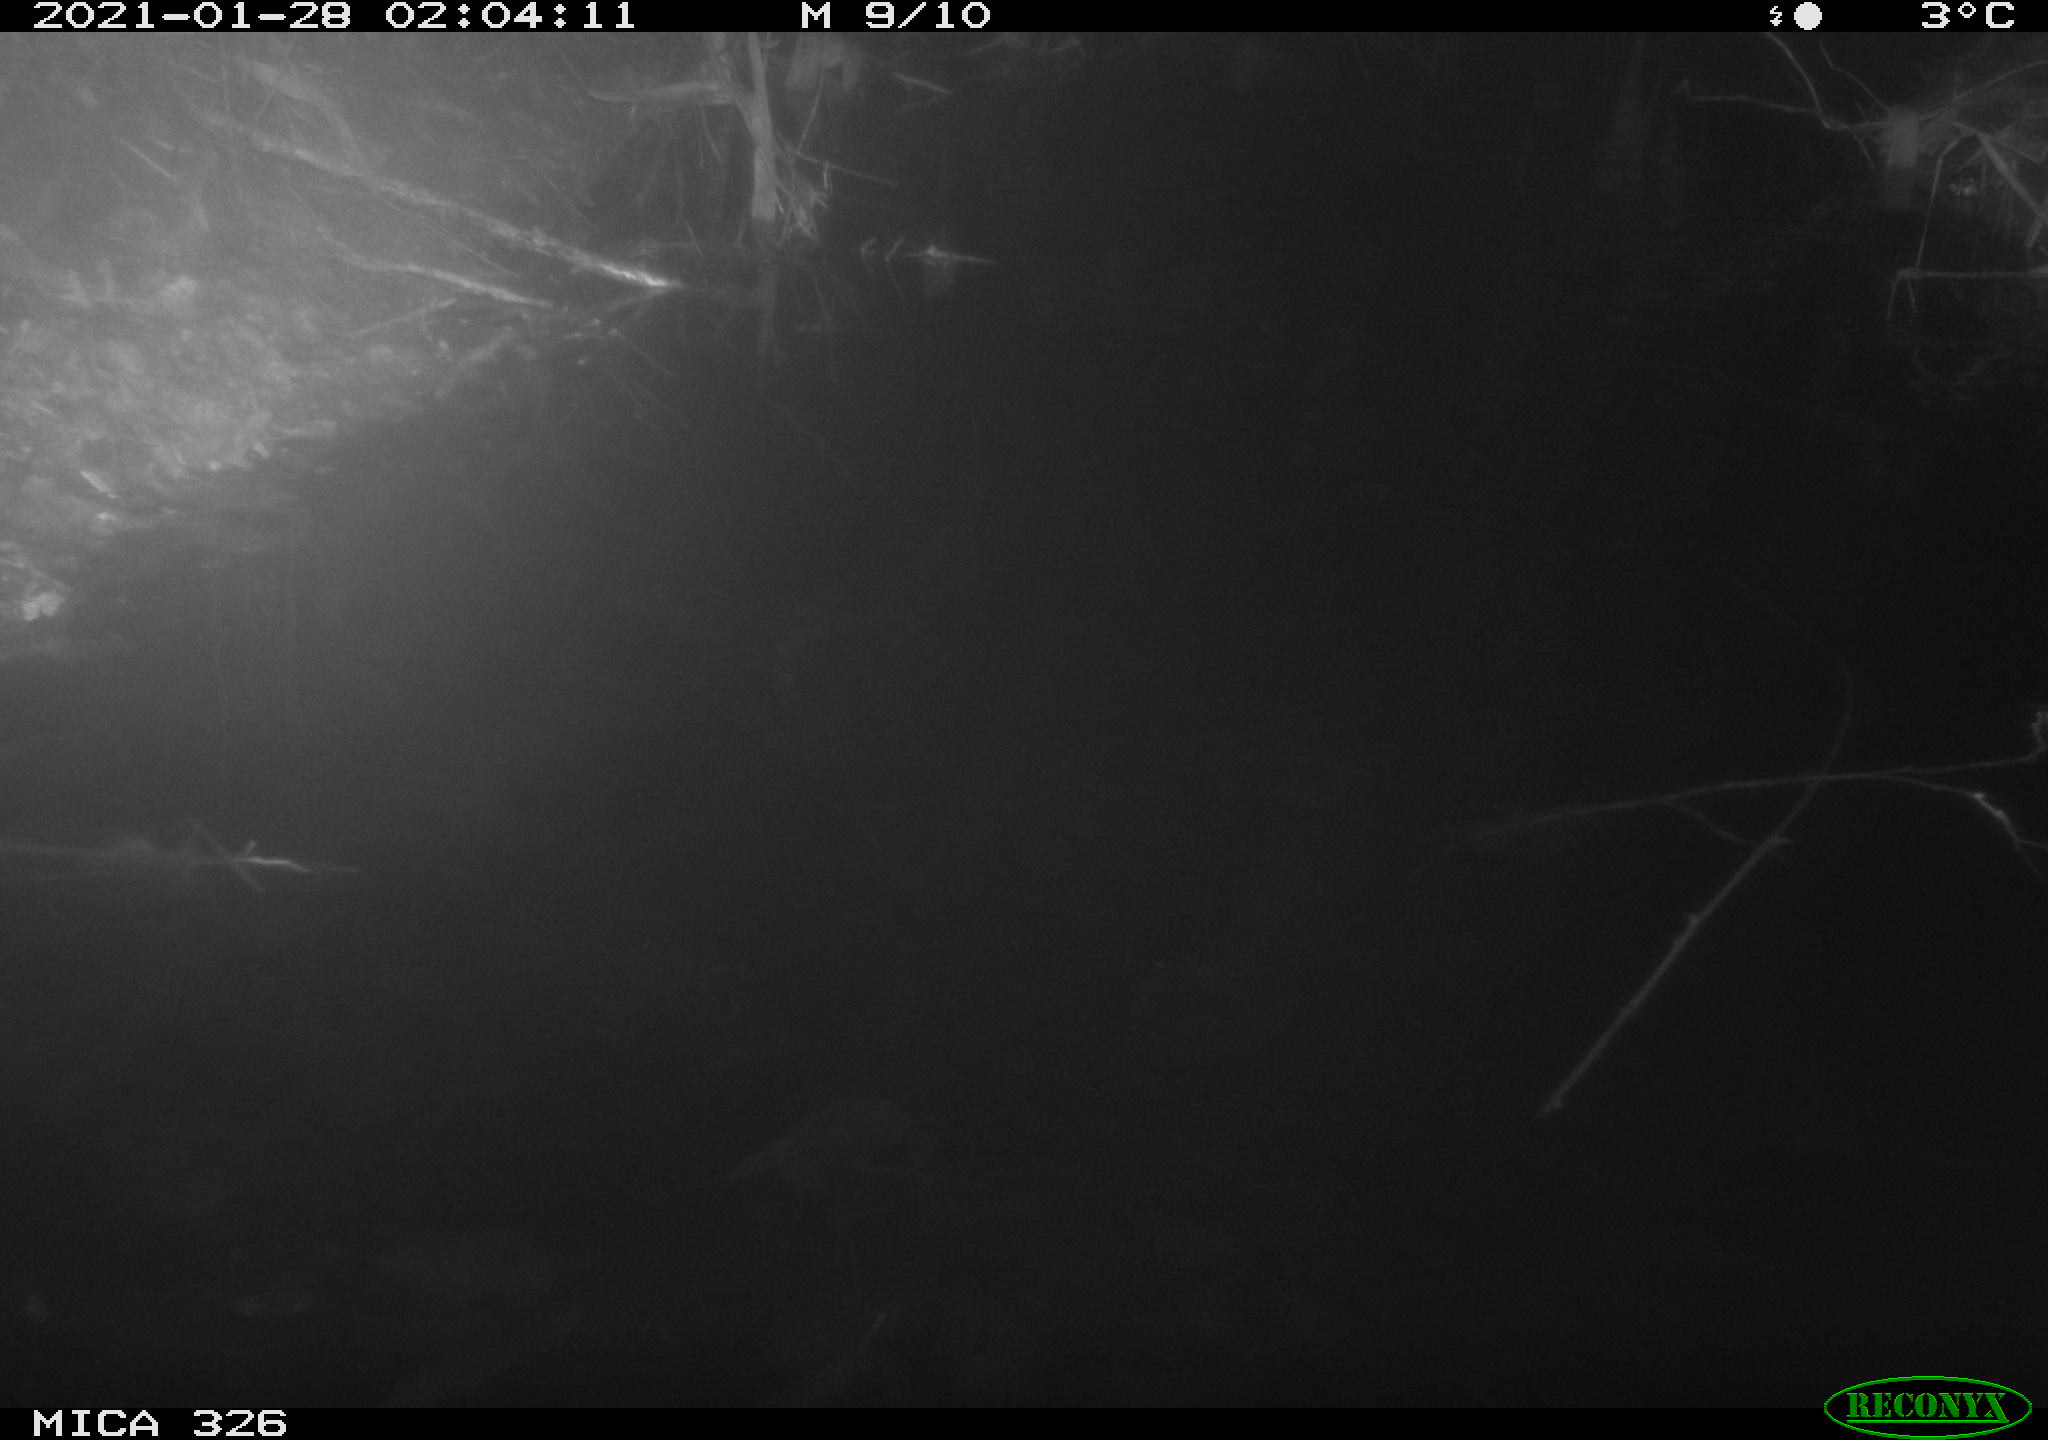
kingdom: Animalia
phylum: Chordata
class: Mammalia
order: Rodentia
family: Cricetidae
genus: Ondatra
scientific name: Ondatra zibethicus
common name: Muskrat
